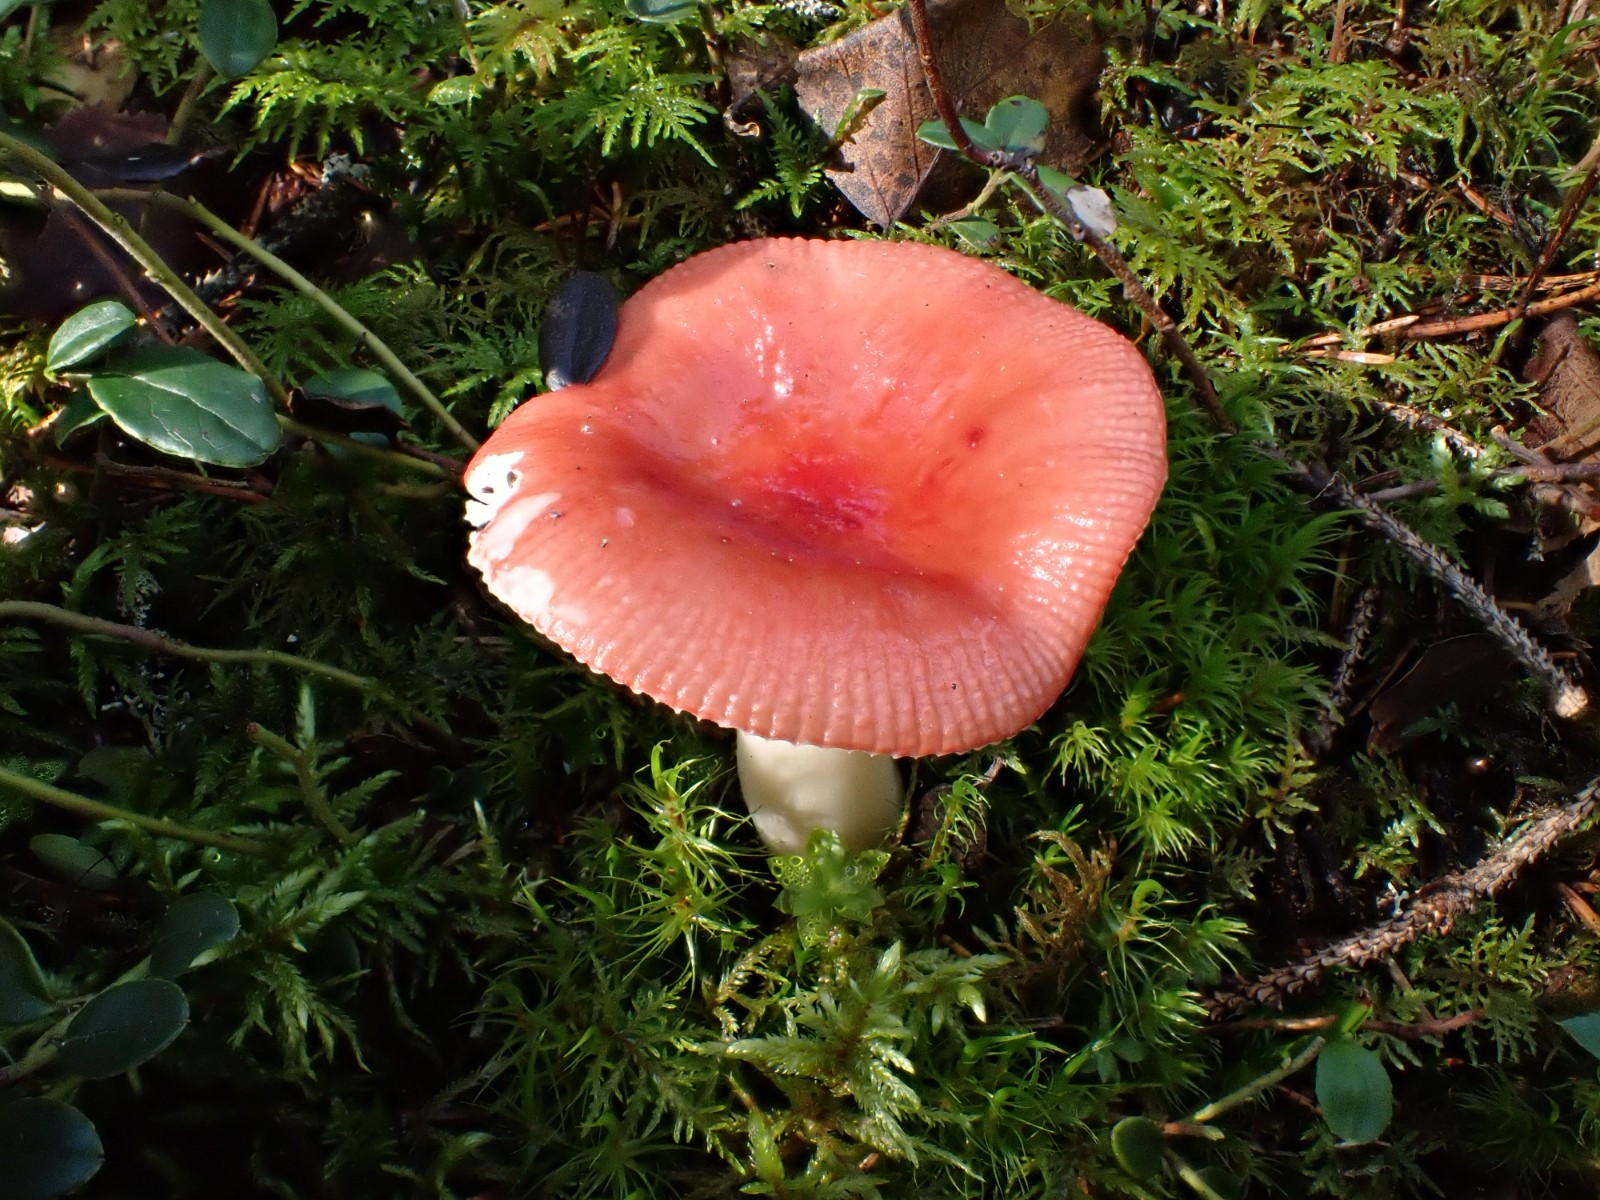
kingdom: Fungi
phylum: Basidiomycota
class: Agaricomycetes
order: Russulales
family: Russulaceae
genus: Russula
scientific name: Russula hydrophila
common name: gråstokket gift-skørhat
